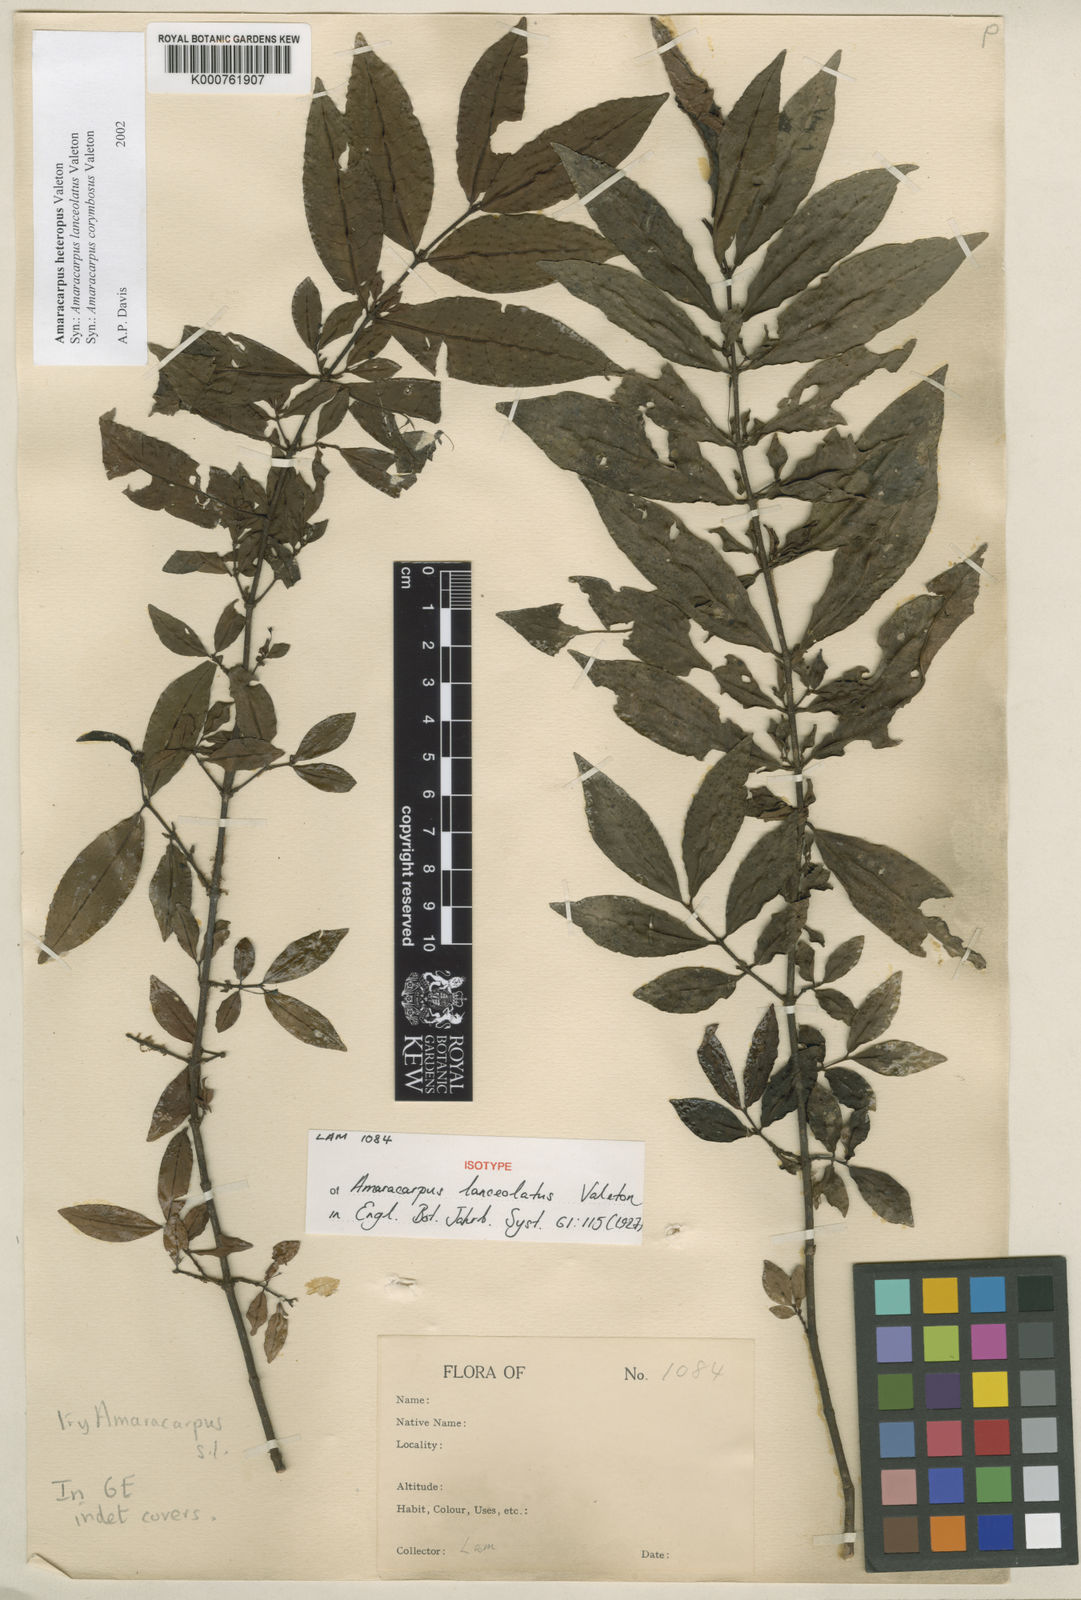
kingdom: Plantae
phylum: Tracheophyta
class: Magnoliopsida
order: Gentianales
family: Rubiaceae
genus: Amaracarpus
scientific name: Amaracarpus nematopodus
